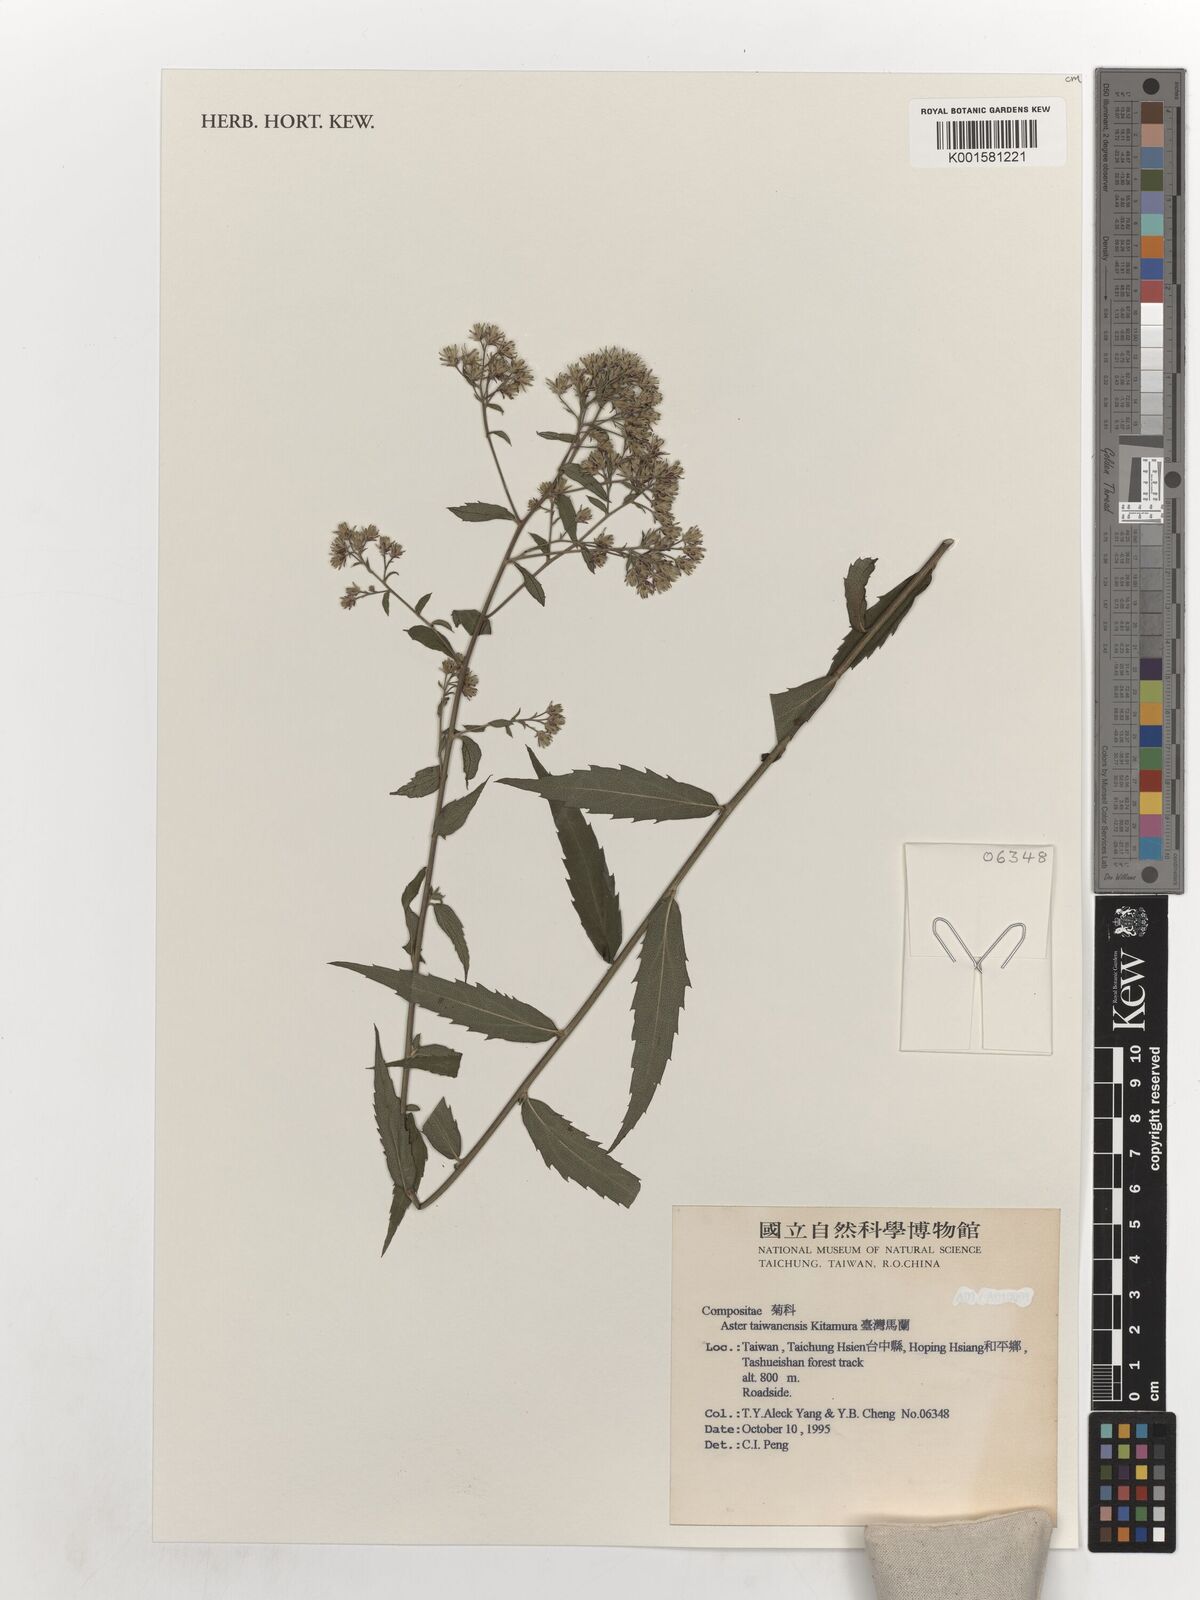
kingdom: Plantae
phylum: Tracheophyta
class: Magnoliopsida
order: Asterales
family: Asteraceae
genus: Aster
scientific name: Aster taiwanensis
